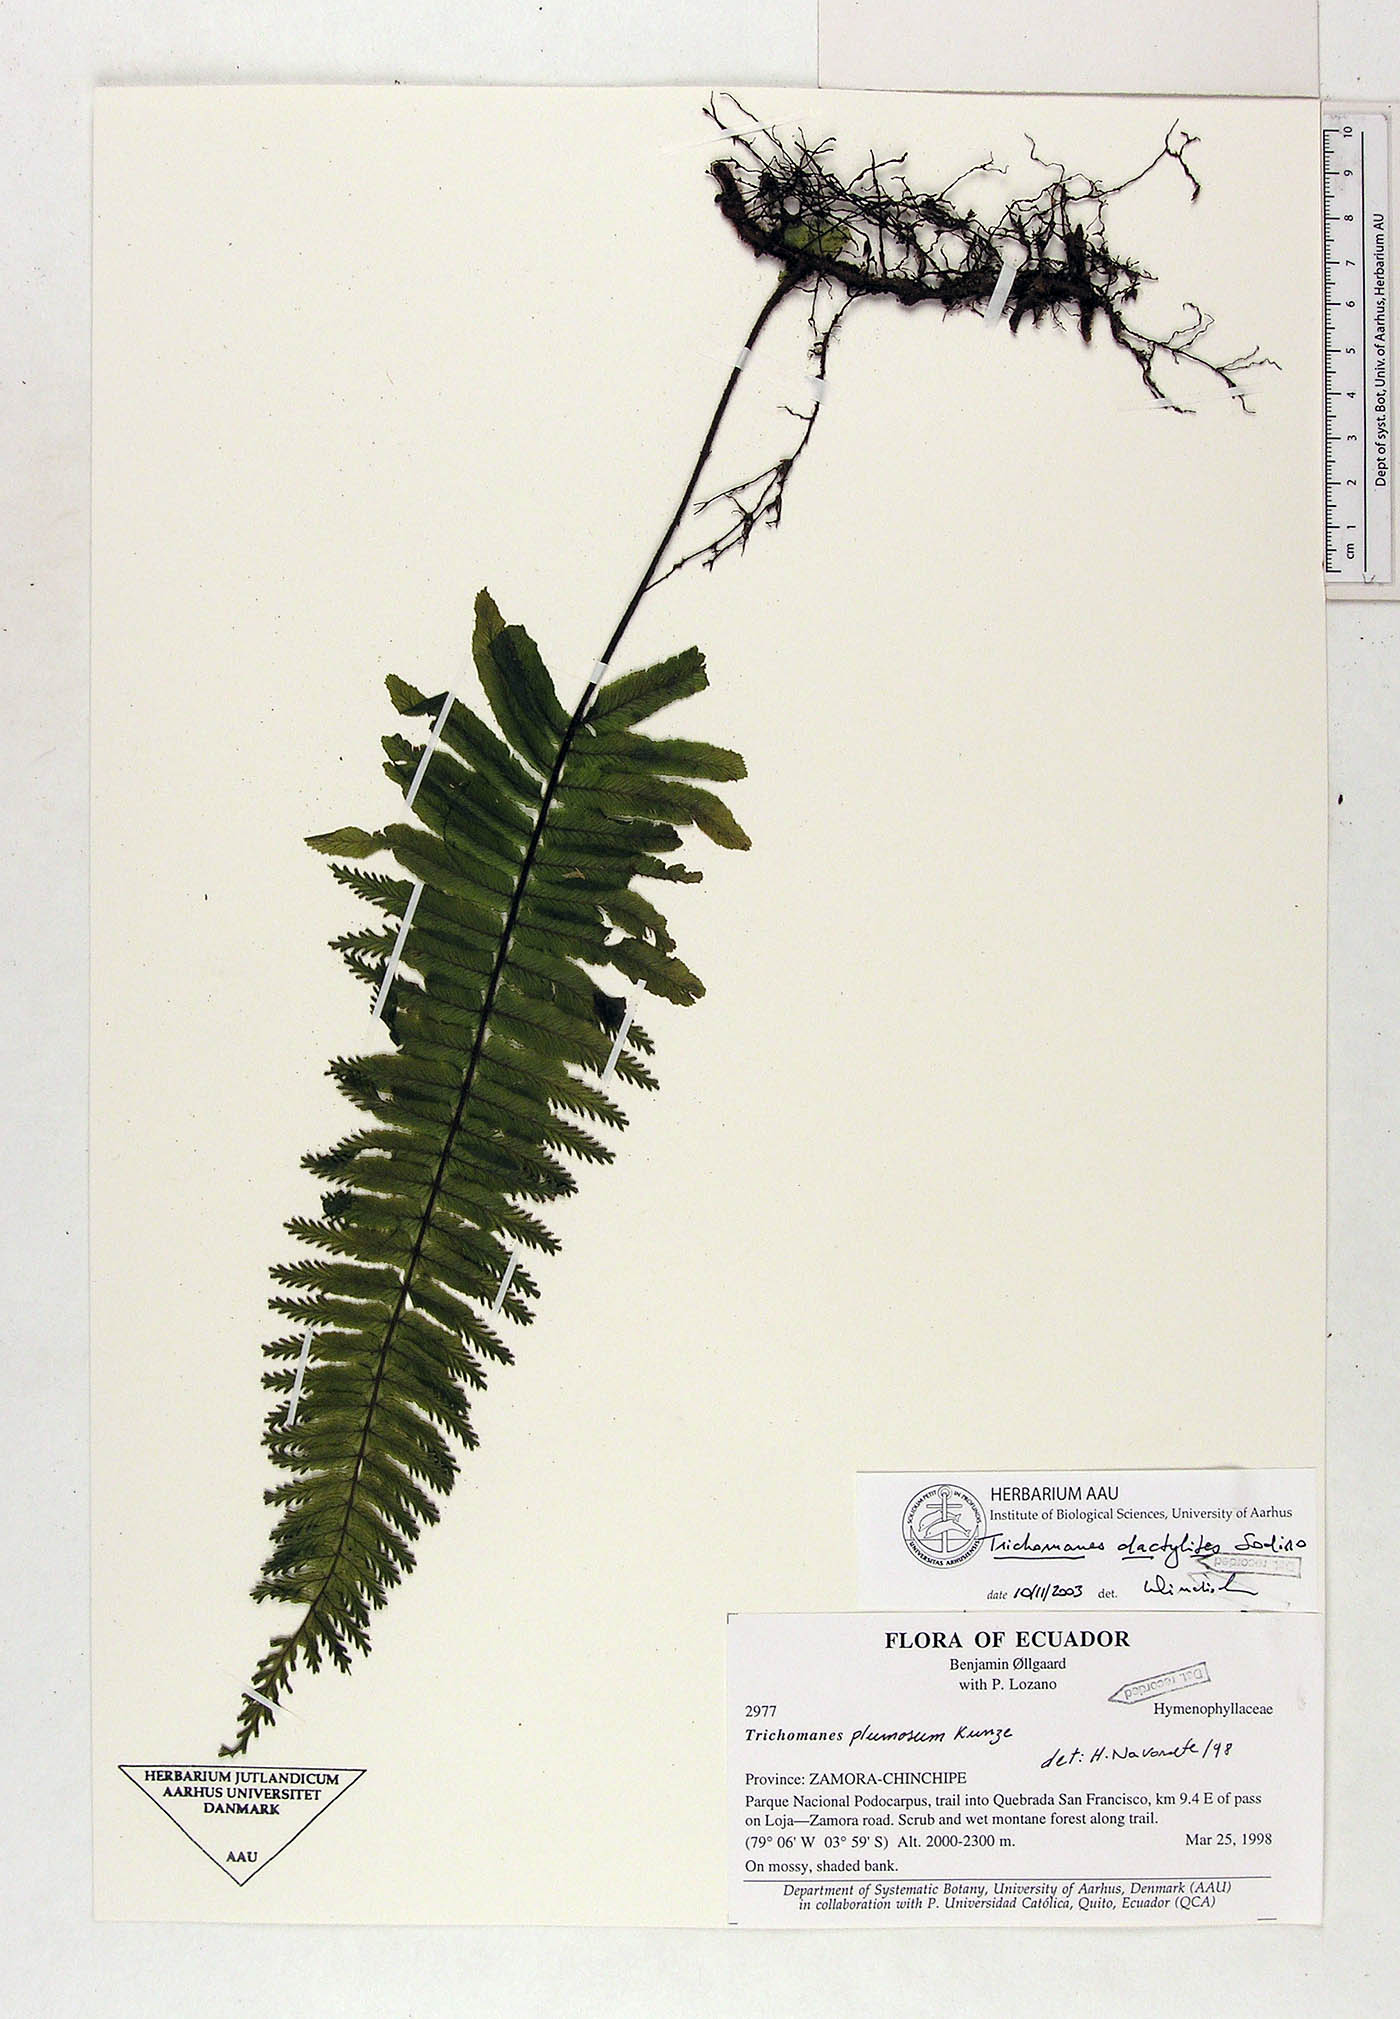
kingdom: Plantae
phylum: Tracheophyta
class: Polypodiopsida
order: Hymenophyllales
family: Hymenophyllaceae
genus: Trichomanes
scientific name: Trichomanes dactylites
